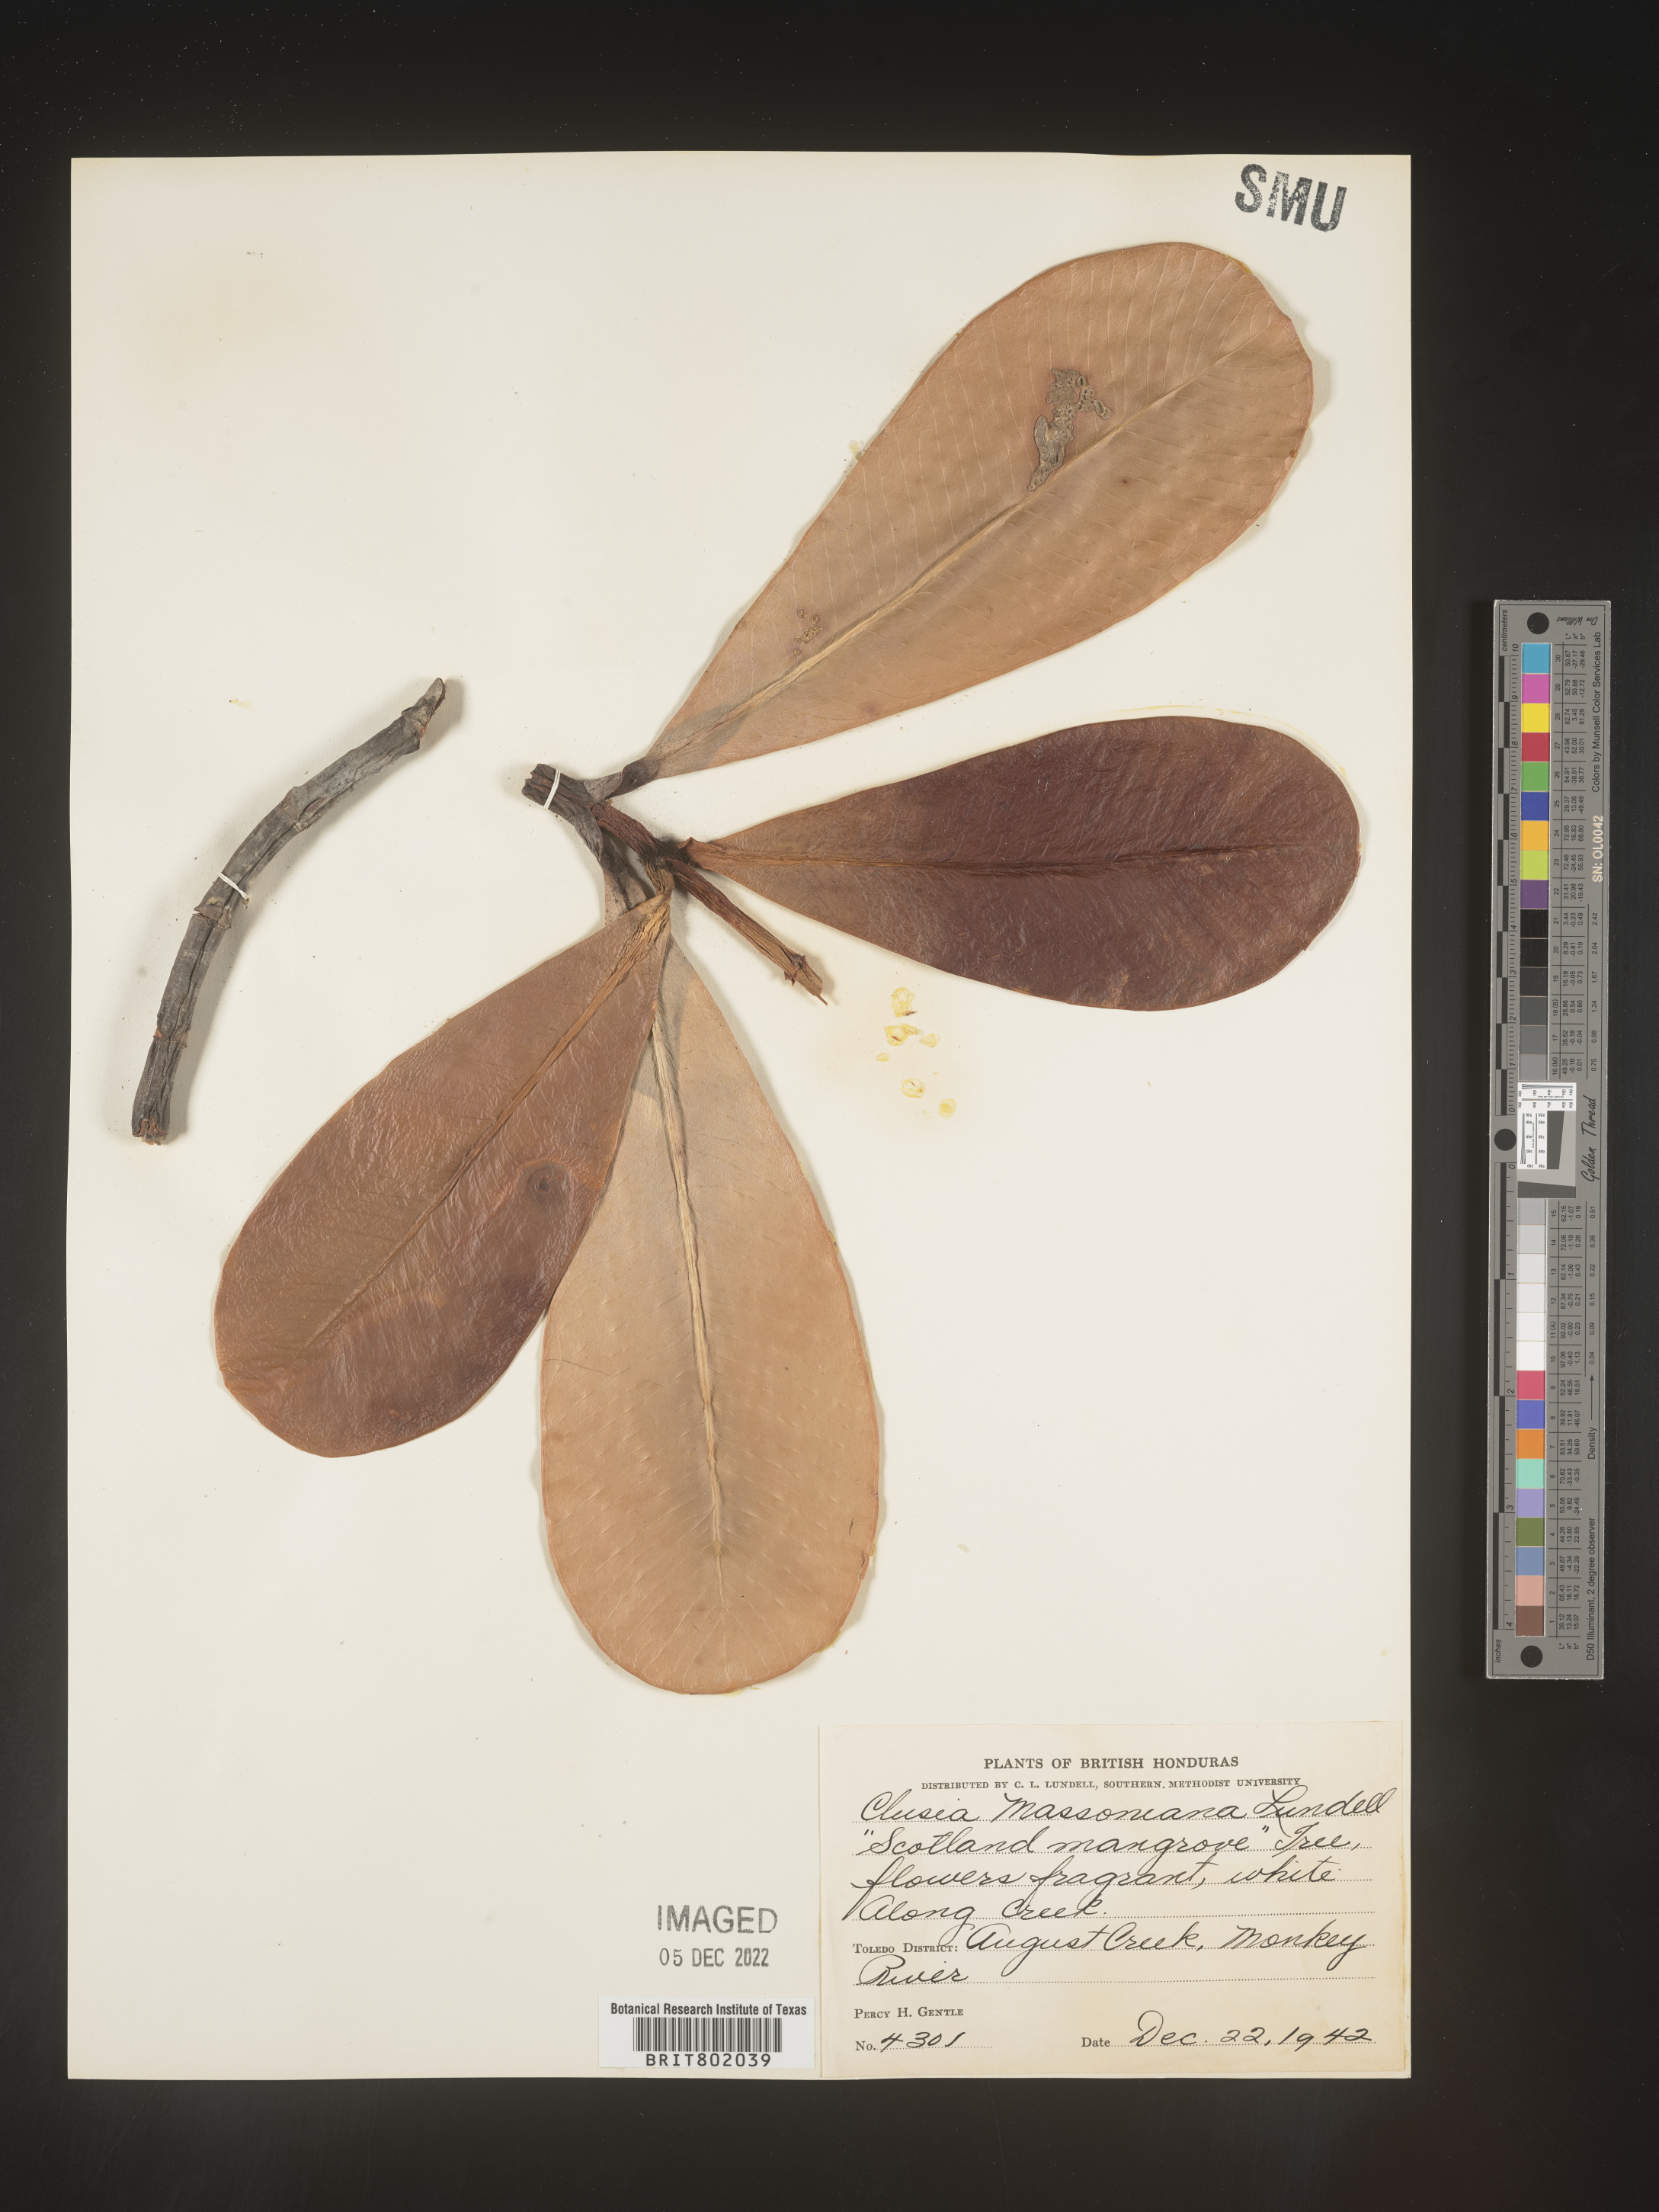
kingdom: Plantae
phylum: Tracheophyta
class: Magnoliopsida
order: Malpighiales
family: Clusiaceae
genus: Clusia
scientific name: Clusia
